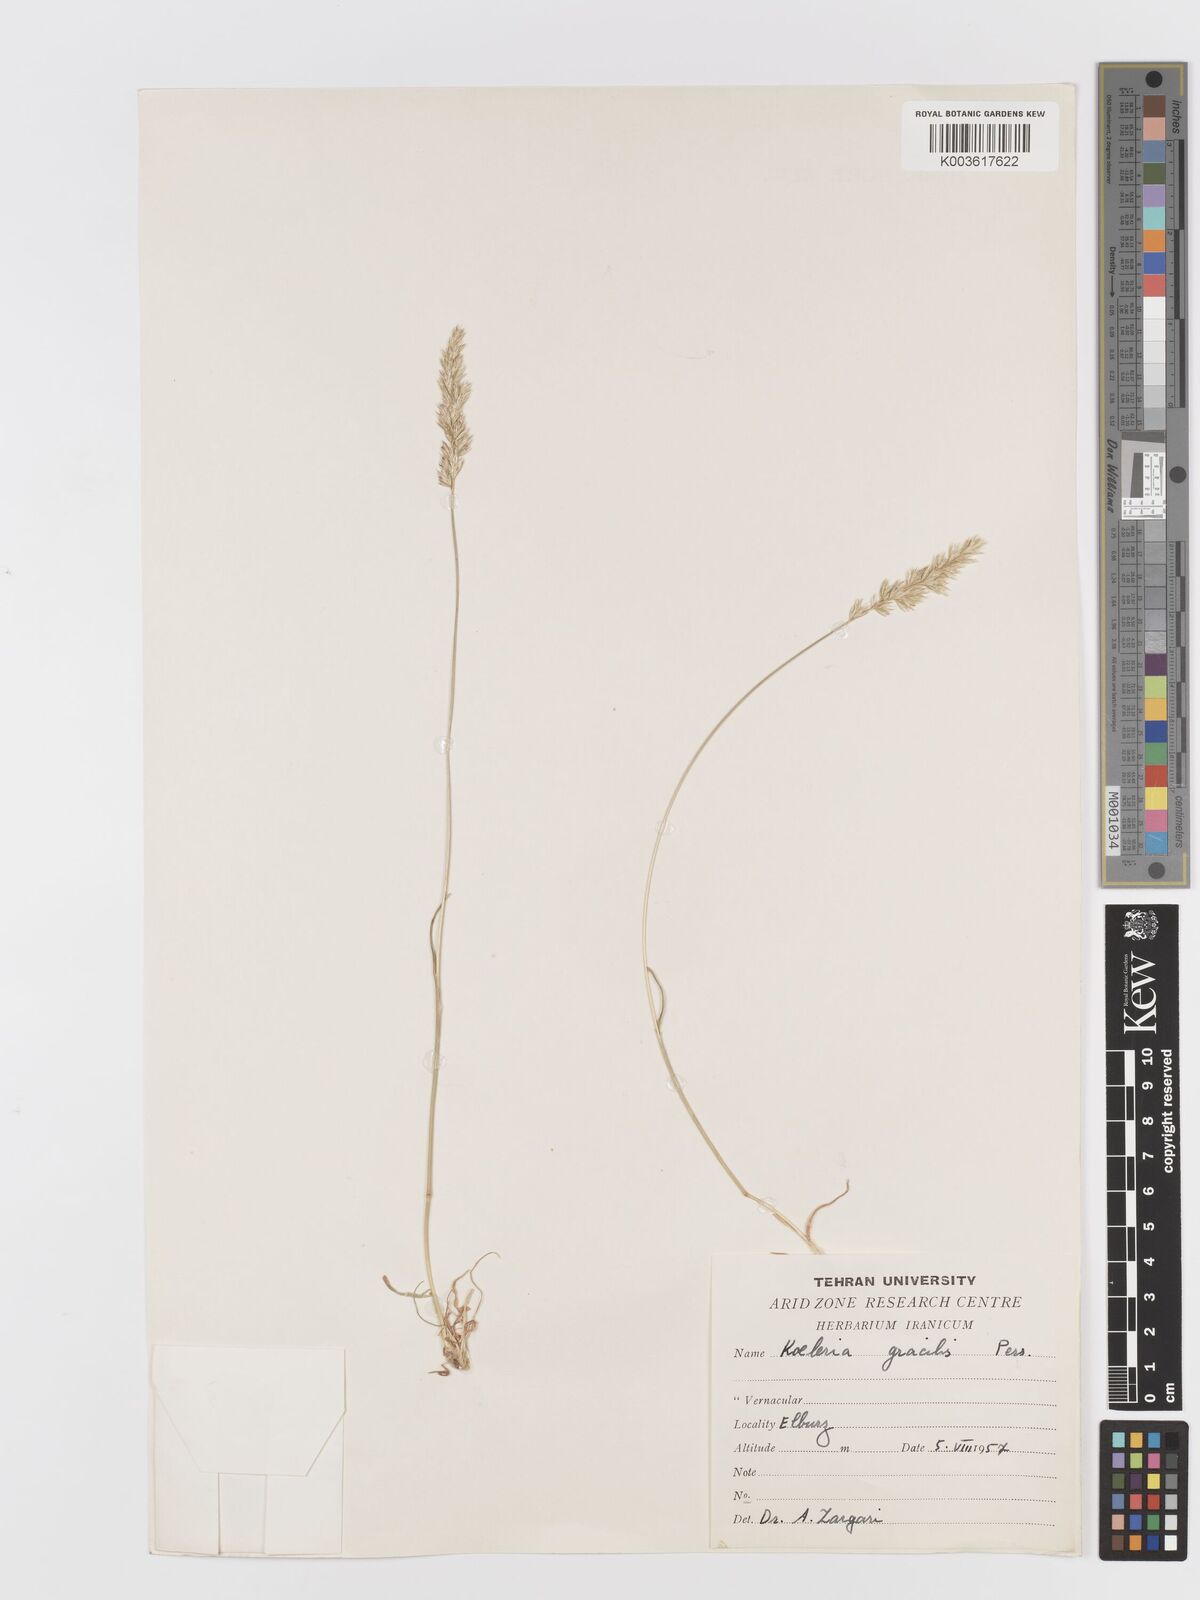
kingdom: Plantae
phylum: Tracheophyta
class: Liliopsida
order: Poales
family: Poaceae
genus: Koeleria
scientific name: Koeleria macrantha
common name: Crested hair-grass
